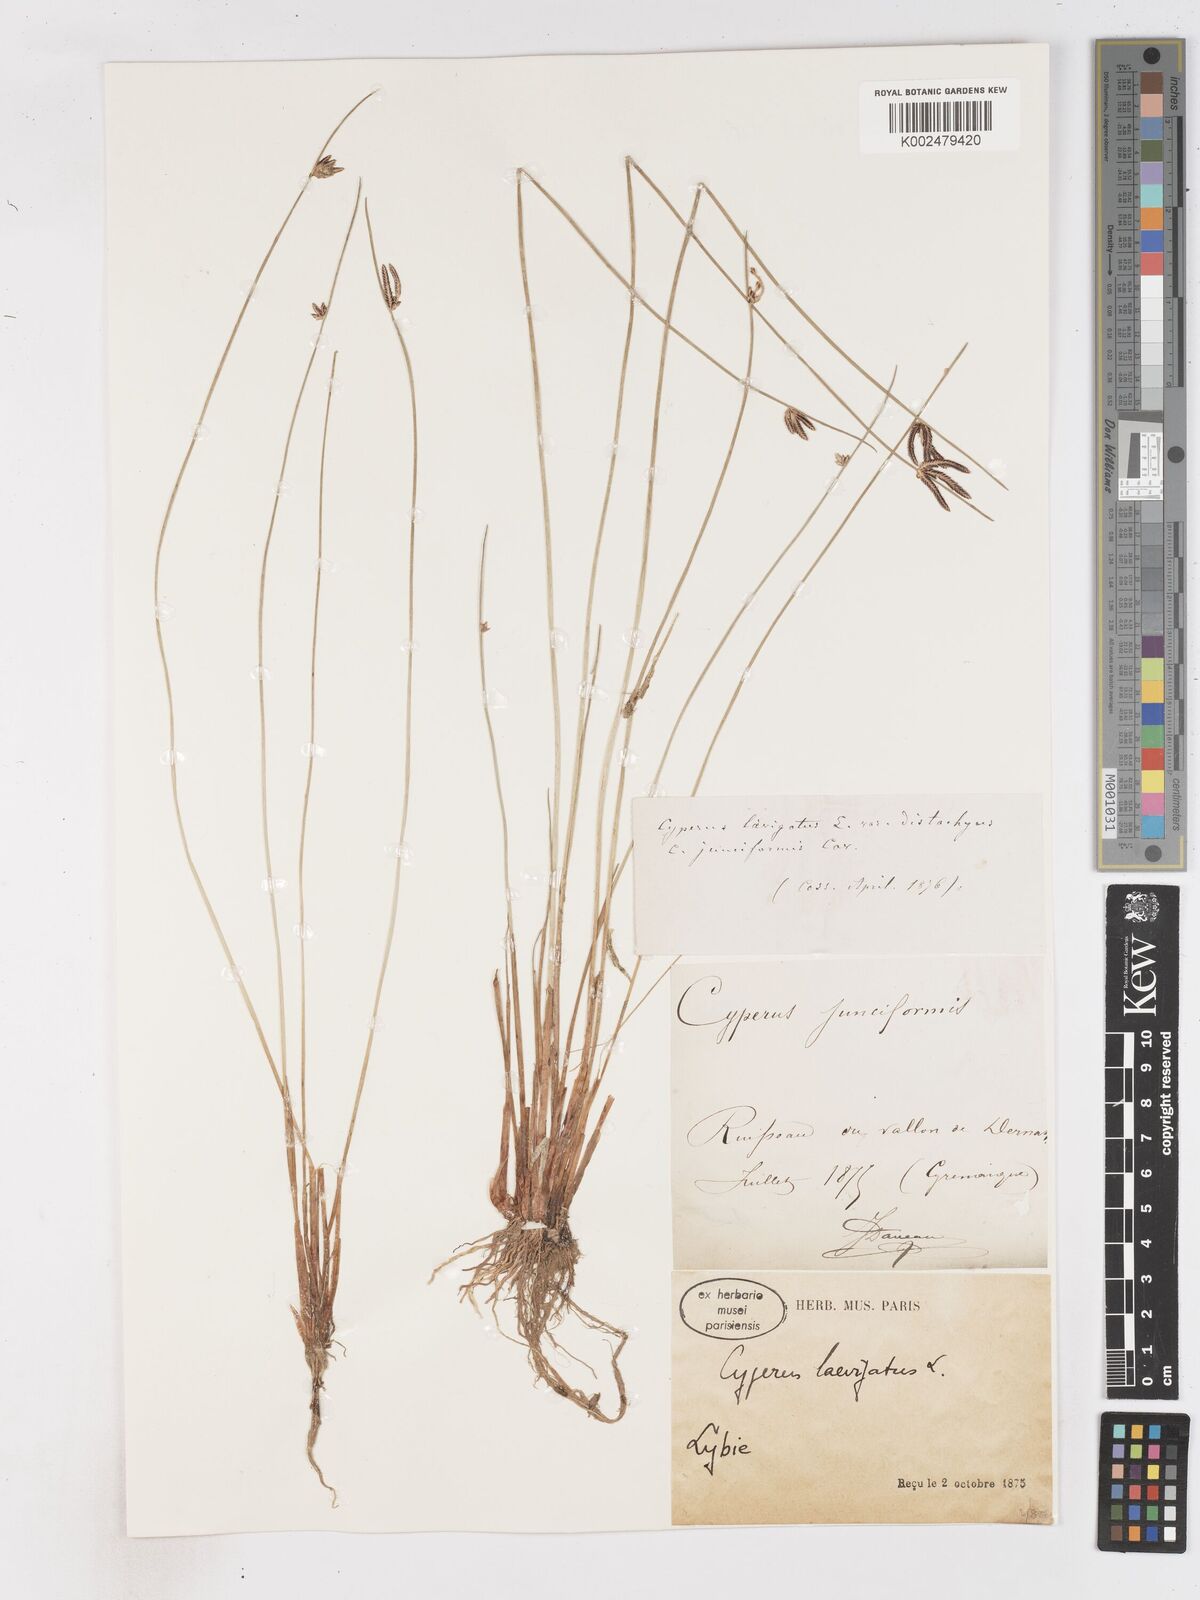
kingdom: Plantae
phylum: Tracheophyta
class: Liliopsida
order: Poales
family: Cyperaceae
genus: Cyperus
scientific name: Cyperus laevigatus
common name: Smooth flat sedge
